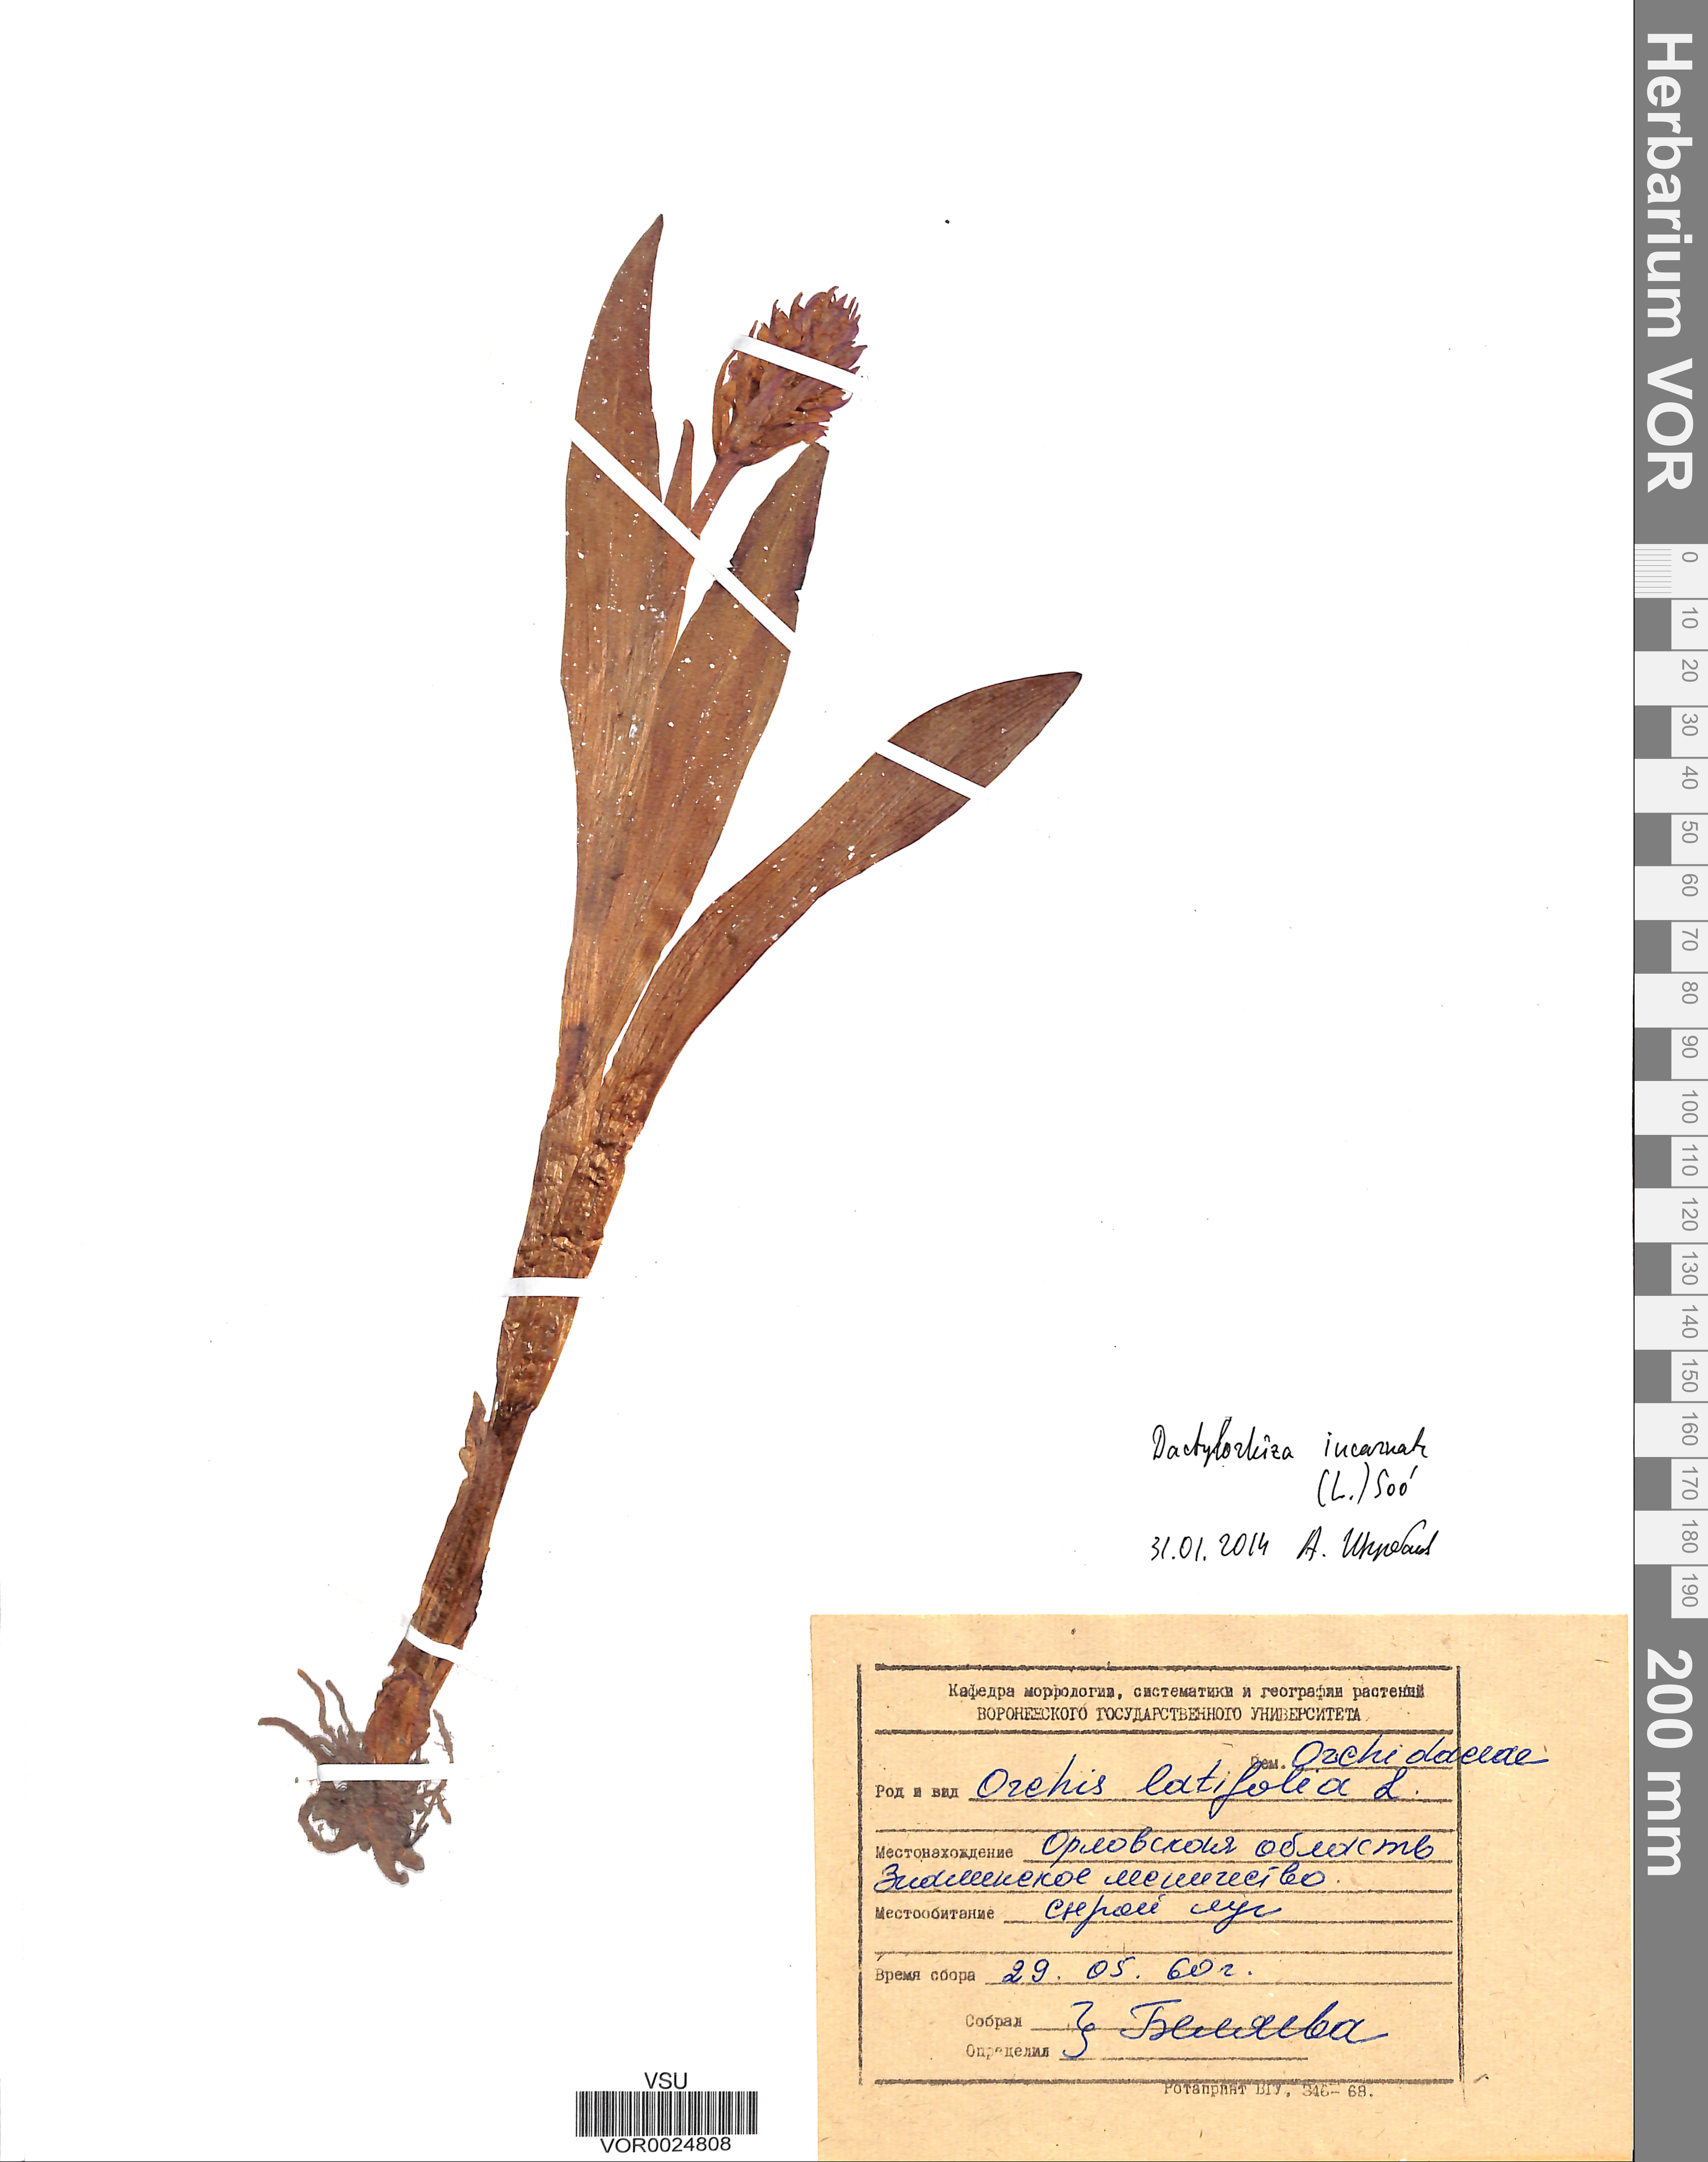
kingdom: Plantae
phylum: Tracheophyta
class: Liliopsida
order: Asparagales
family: Orchidaceae
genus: Dactylorhiza
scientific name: Dactylorhiza incarnata
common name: Early marsh-orchid
